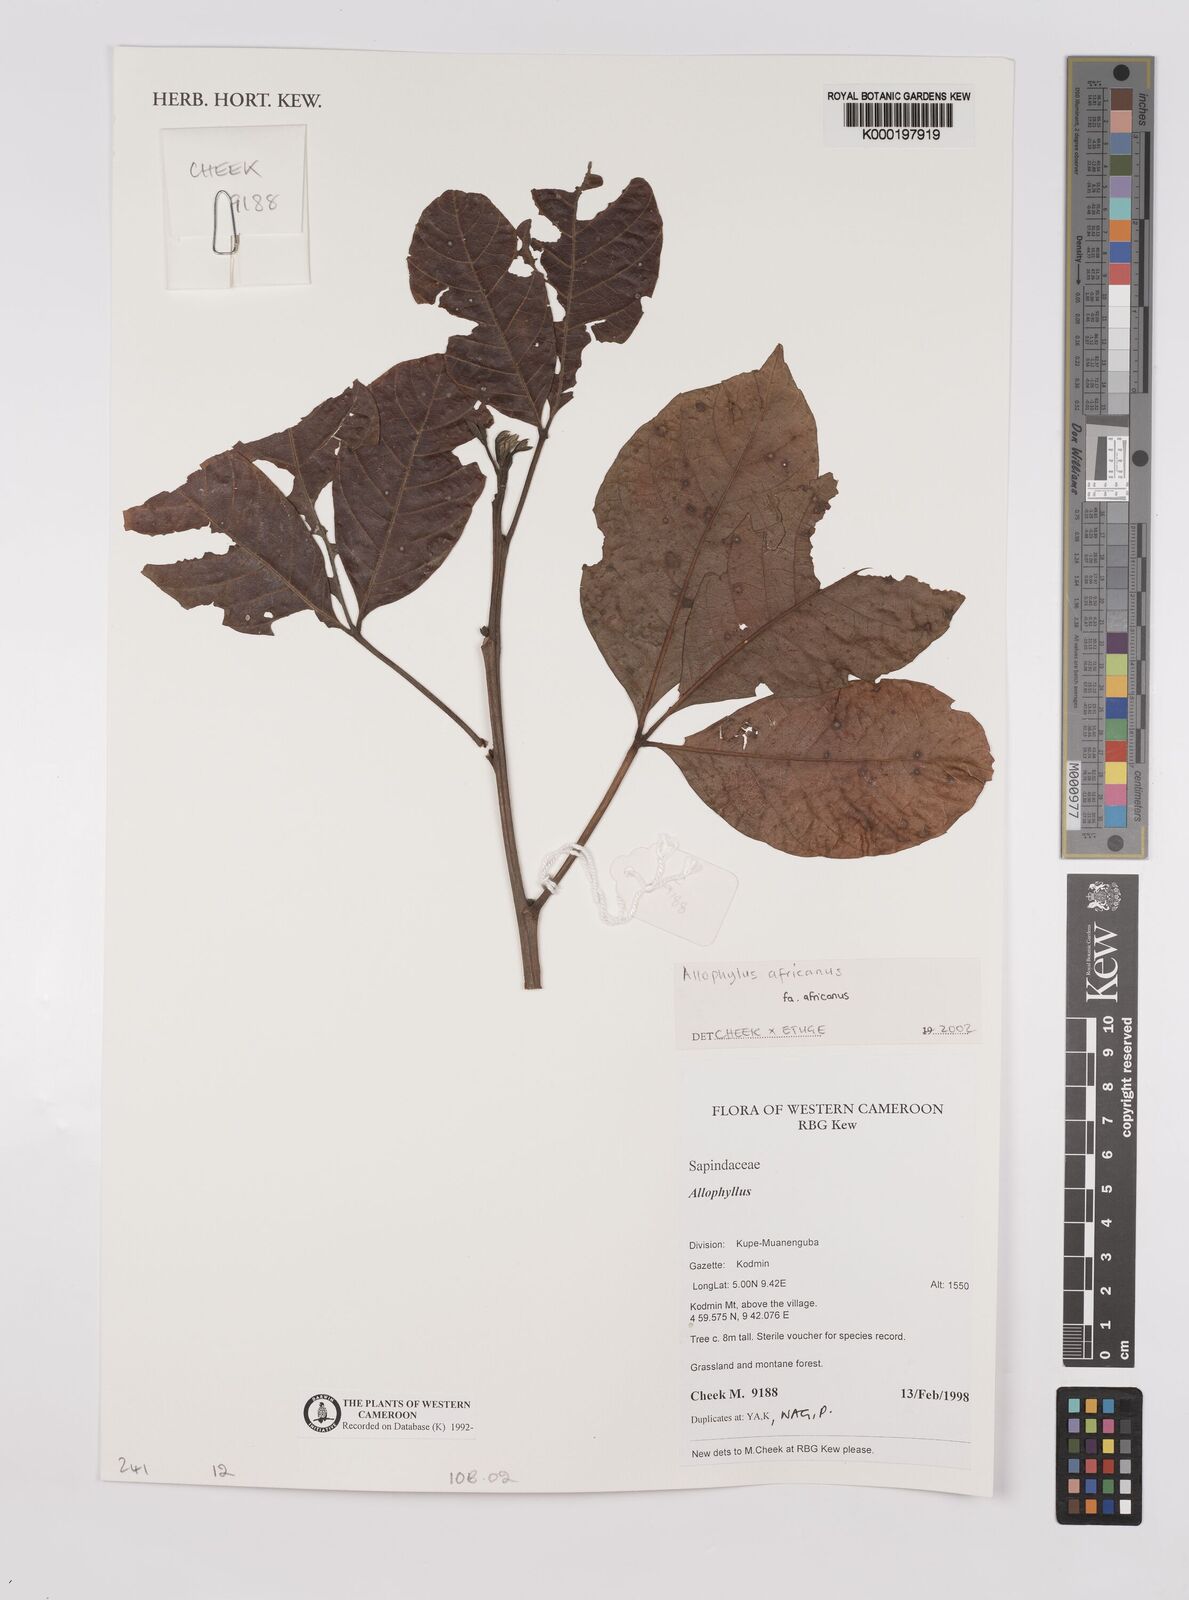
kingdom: Plantae
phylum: Tracheophyta
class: Magnoliopsida
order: Sapindales
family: Sapindaceae
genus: Allophylus
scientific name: Allophylus africanus
